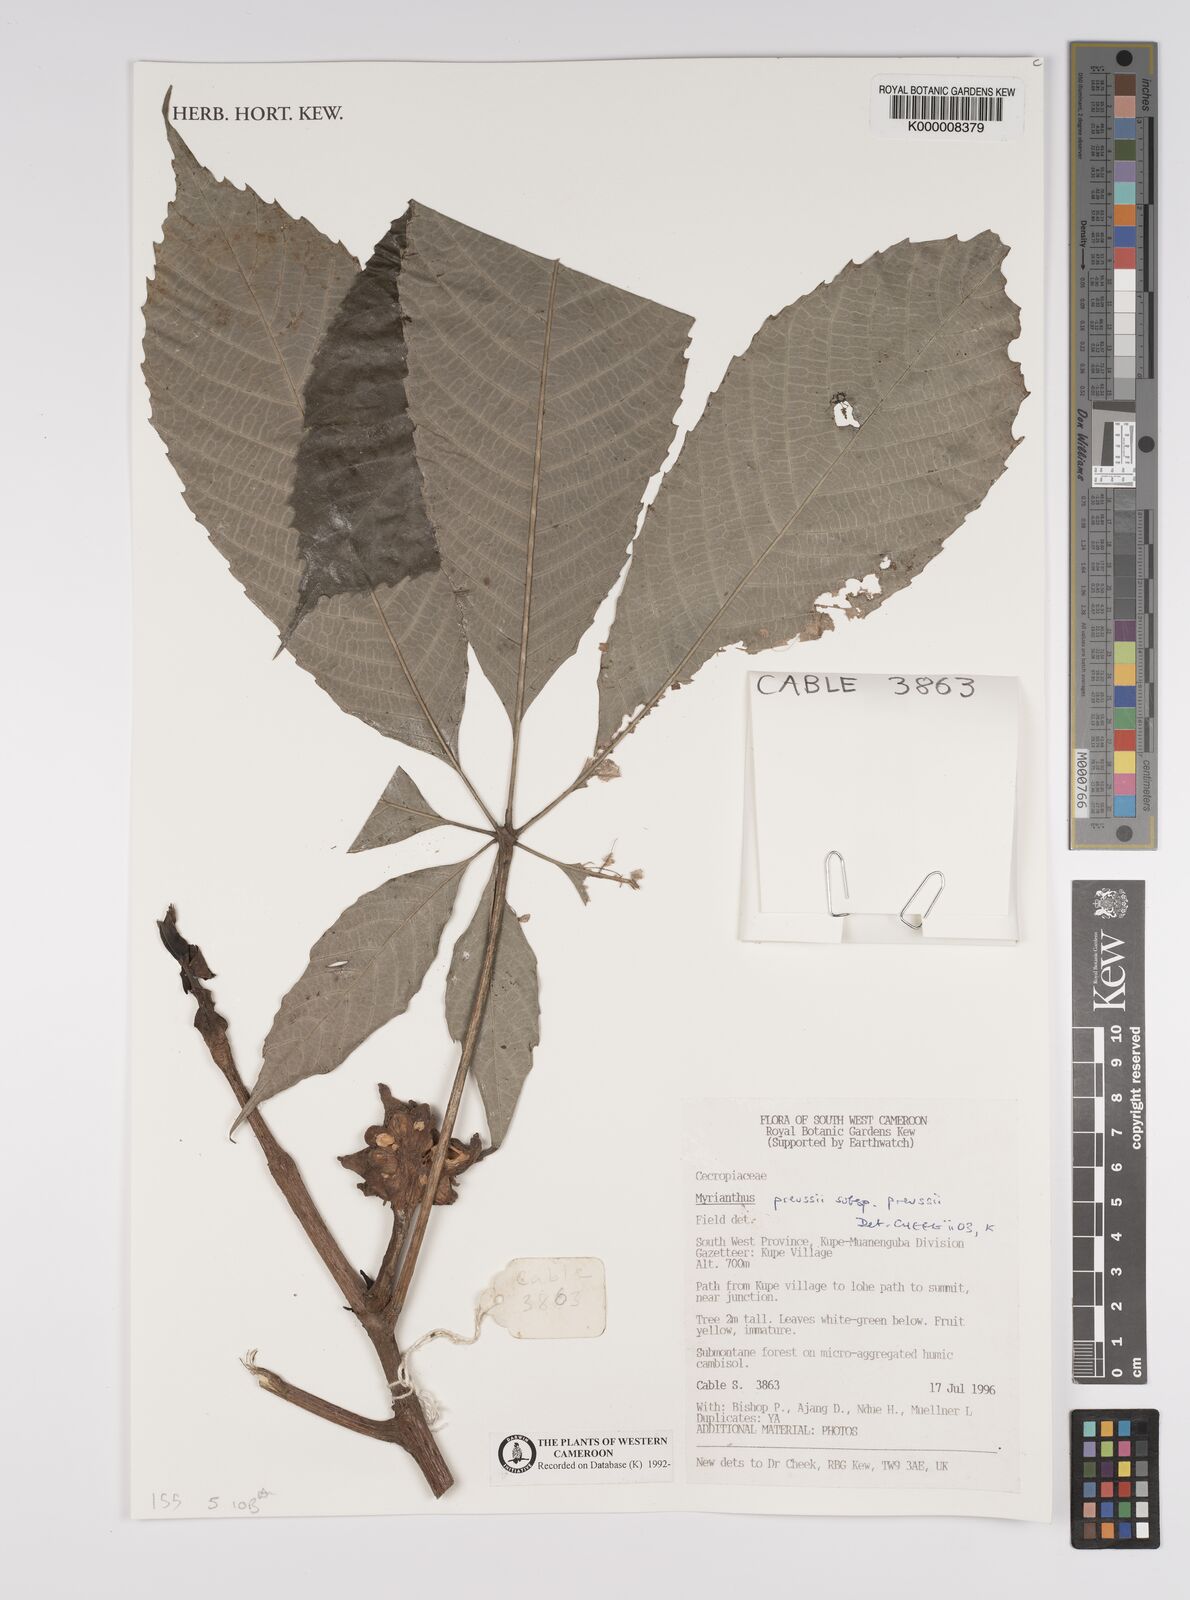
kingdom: Plantae
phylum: Tracheophyta
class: Magnoliopsida
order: Rosales
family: Urticaceae
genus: Myrianthus
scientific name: Myrianthus preussii
